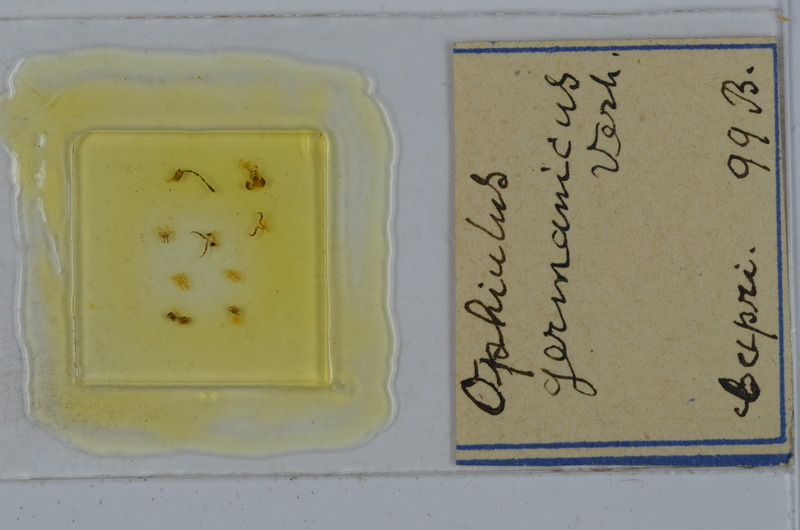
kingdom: Animalia
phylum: Arthropoda
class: Diplopoda
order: Julida
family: Julidae
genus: Ophyiulus
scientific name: Ophyiulus germanicus
